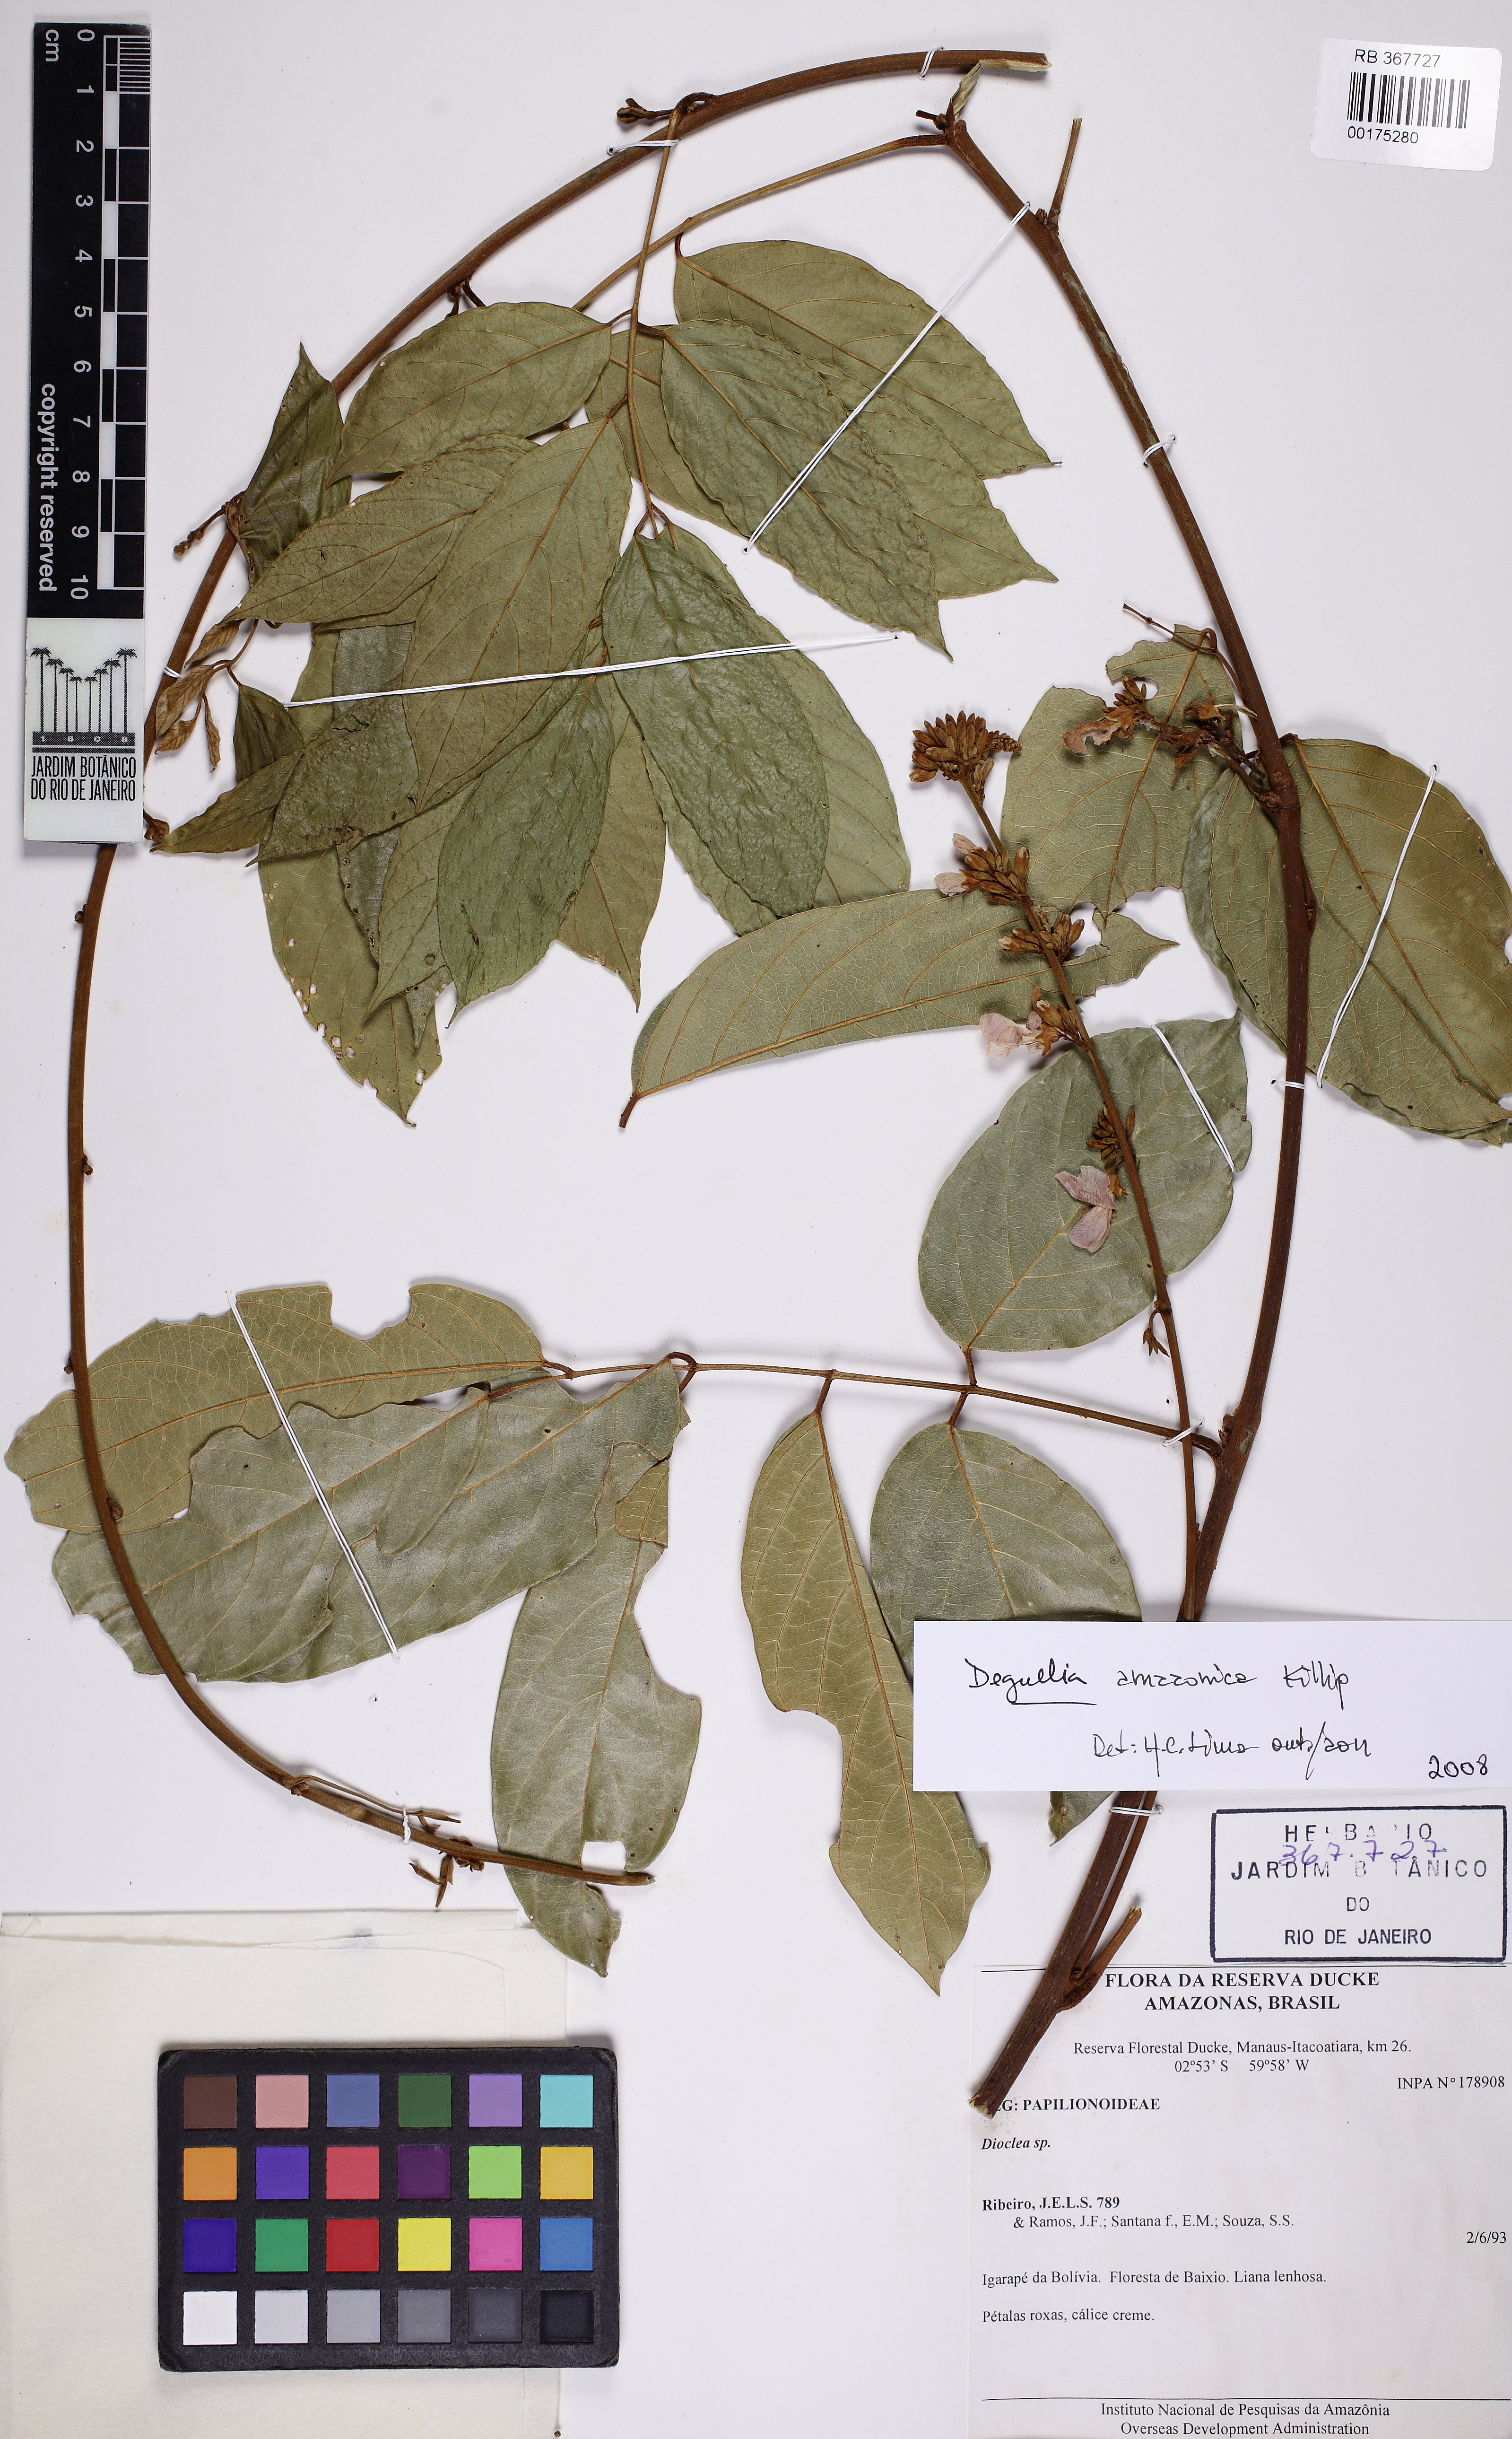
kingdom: Plantae
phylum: Tracheophyta
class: Magnoliopsida
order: Fabales
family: Fabaceae
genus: Deguelia
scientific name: Deguelia
